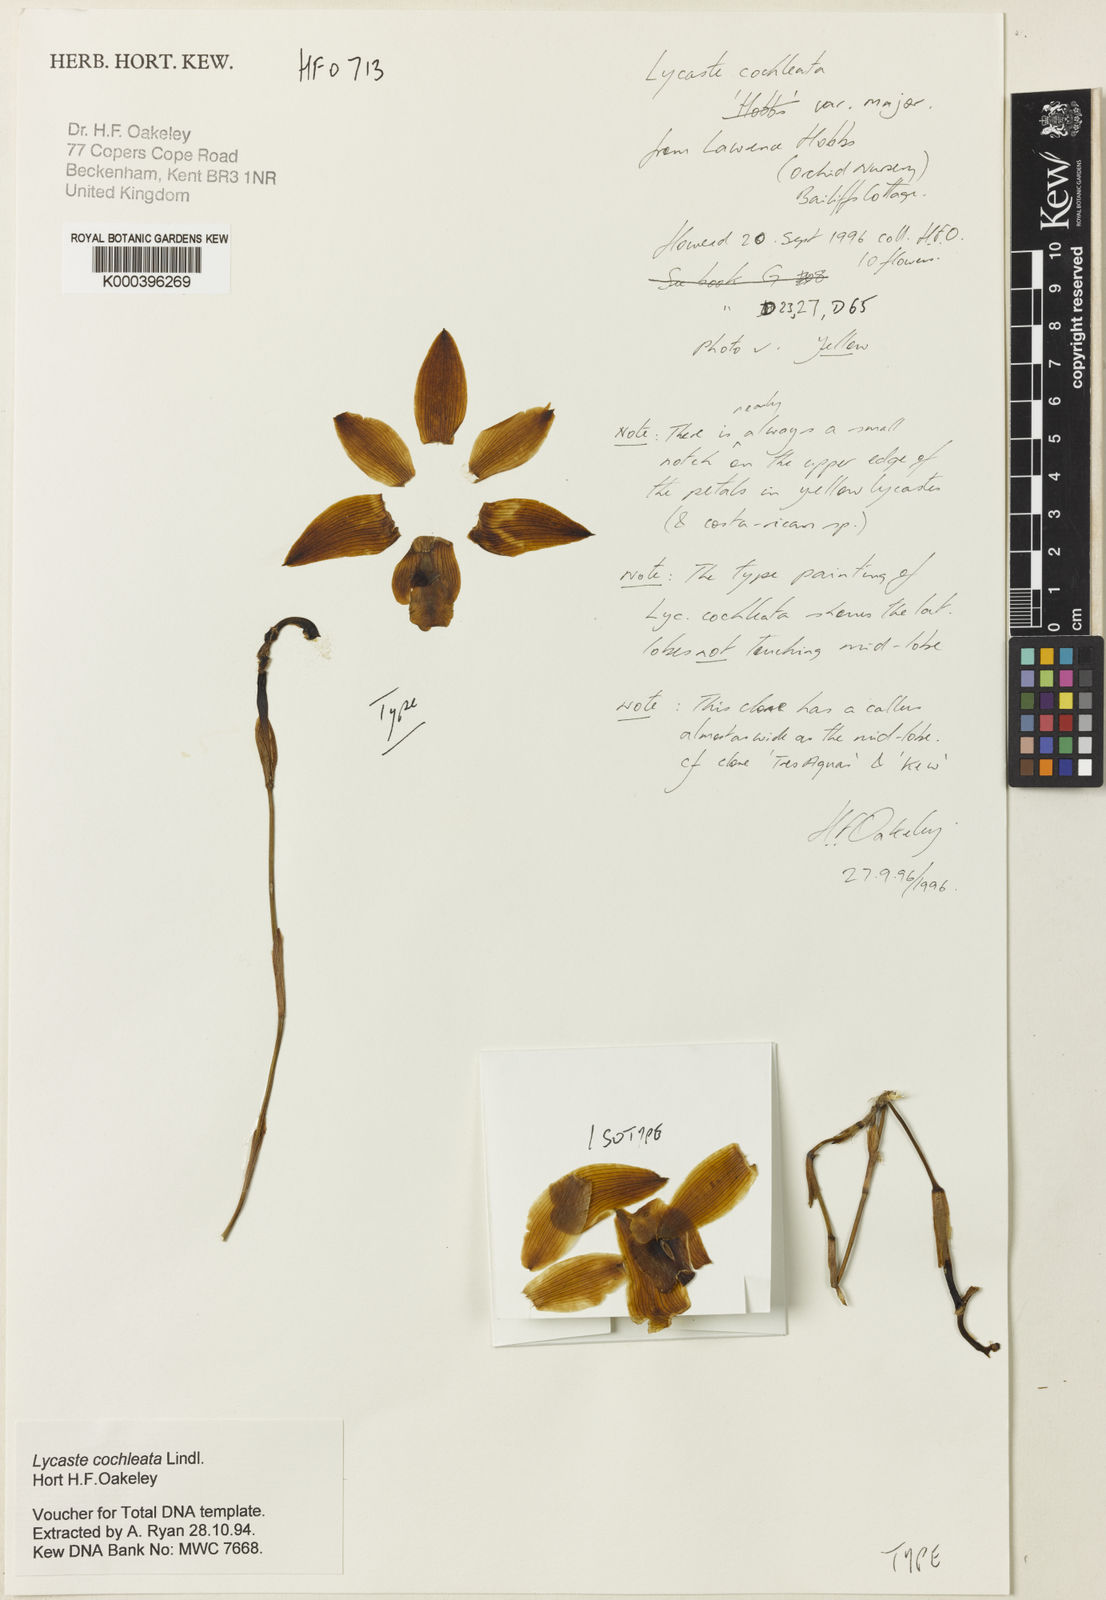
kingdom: Plantae
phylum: Tracheophyta
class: Liliopsida
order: Asparagales
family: Orchidaceae
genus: Lycaste
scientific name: Lycaste cochleata
